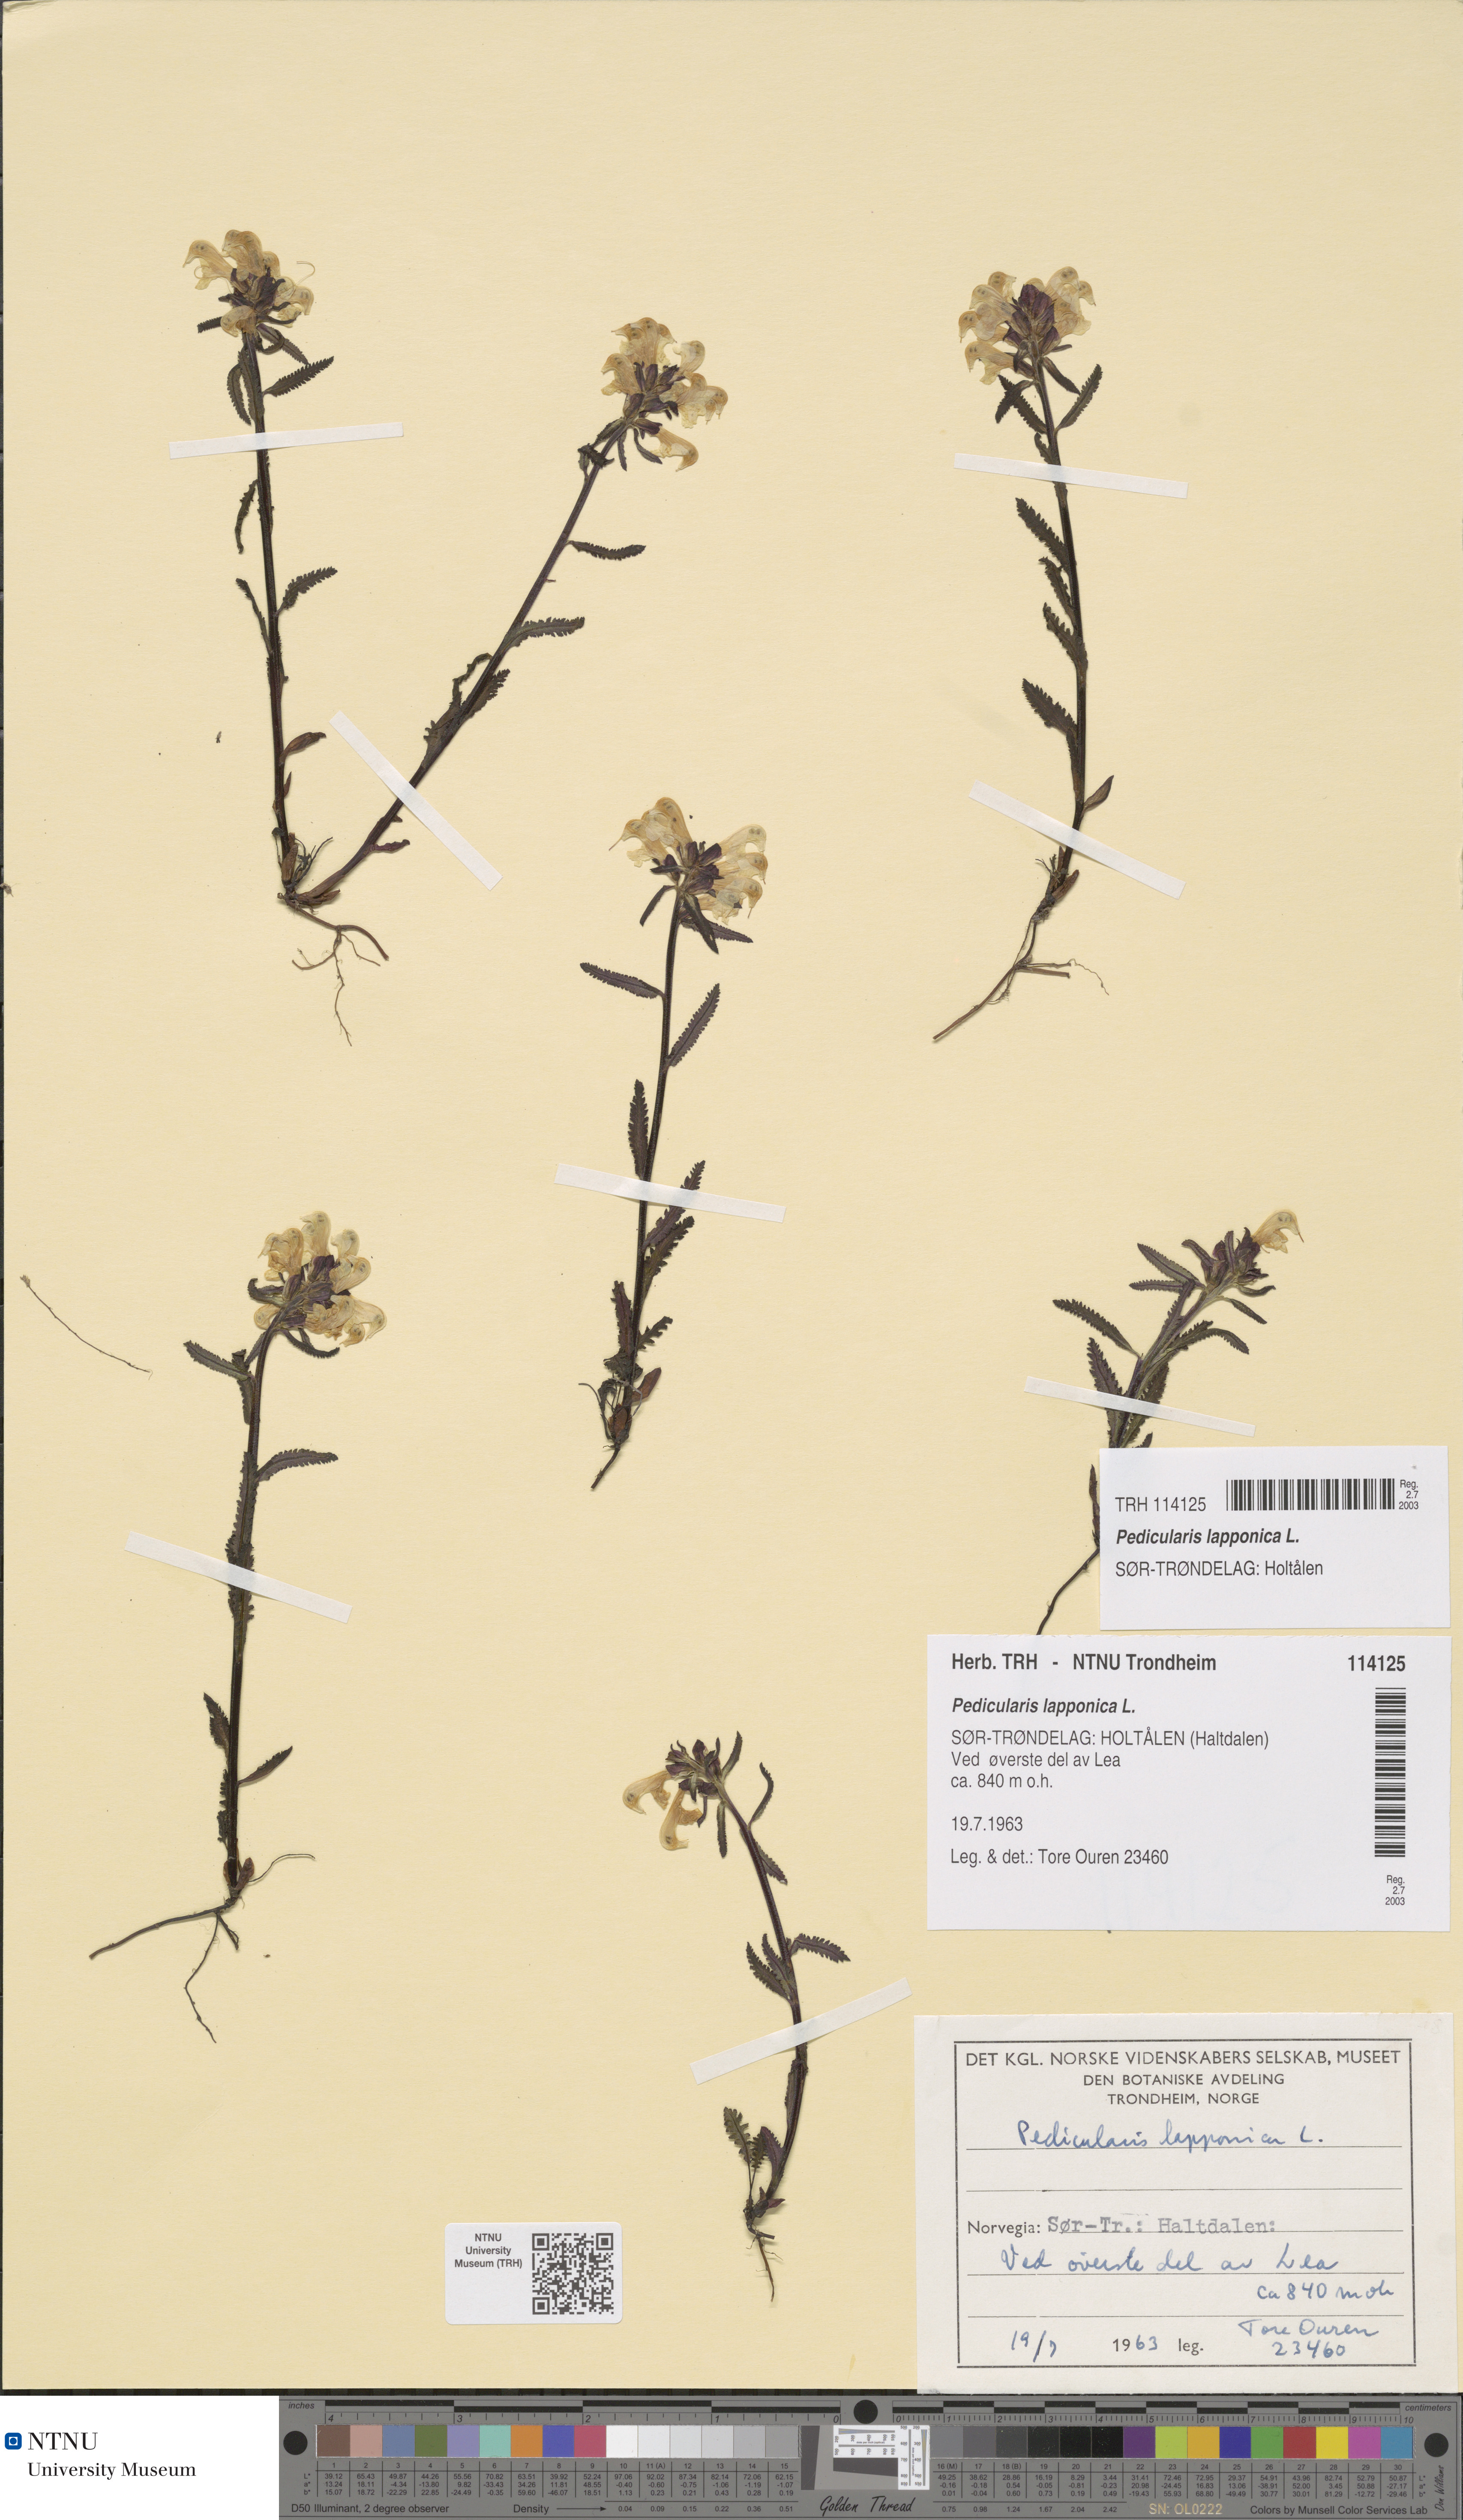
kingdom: Plantae
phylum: Tracheophyta
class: Magnoliopsida
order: Lamiales
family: Orobanchaceae
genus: Pedicularis
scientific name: Pedicularis lapponica
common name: Lapland lousewort
